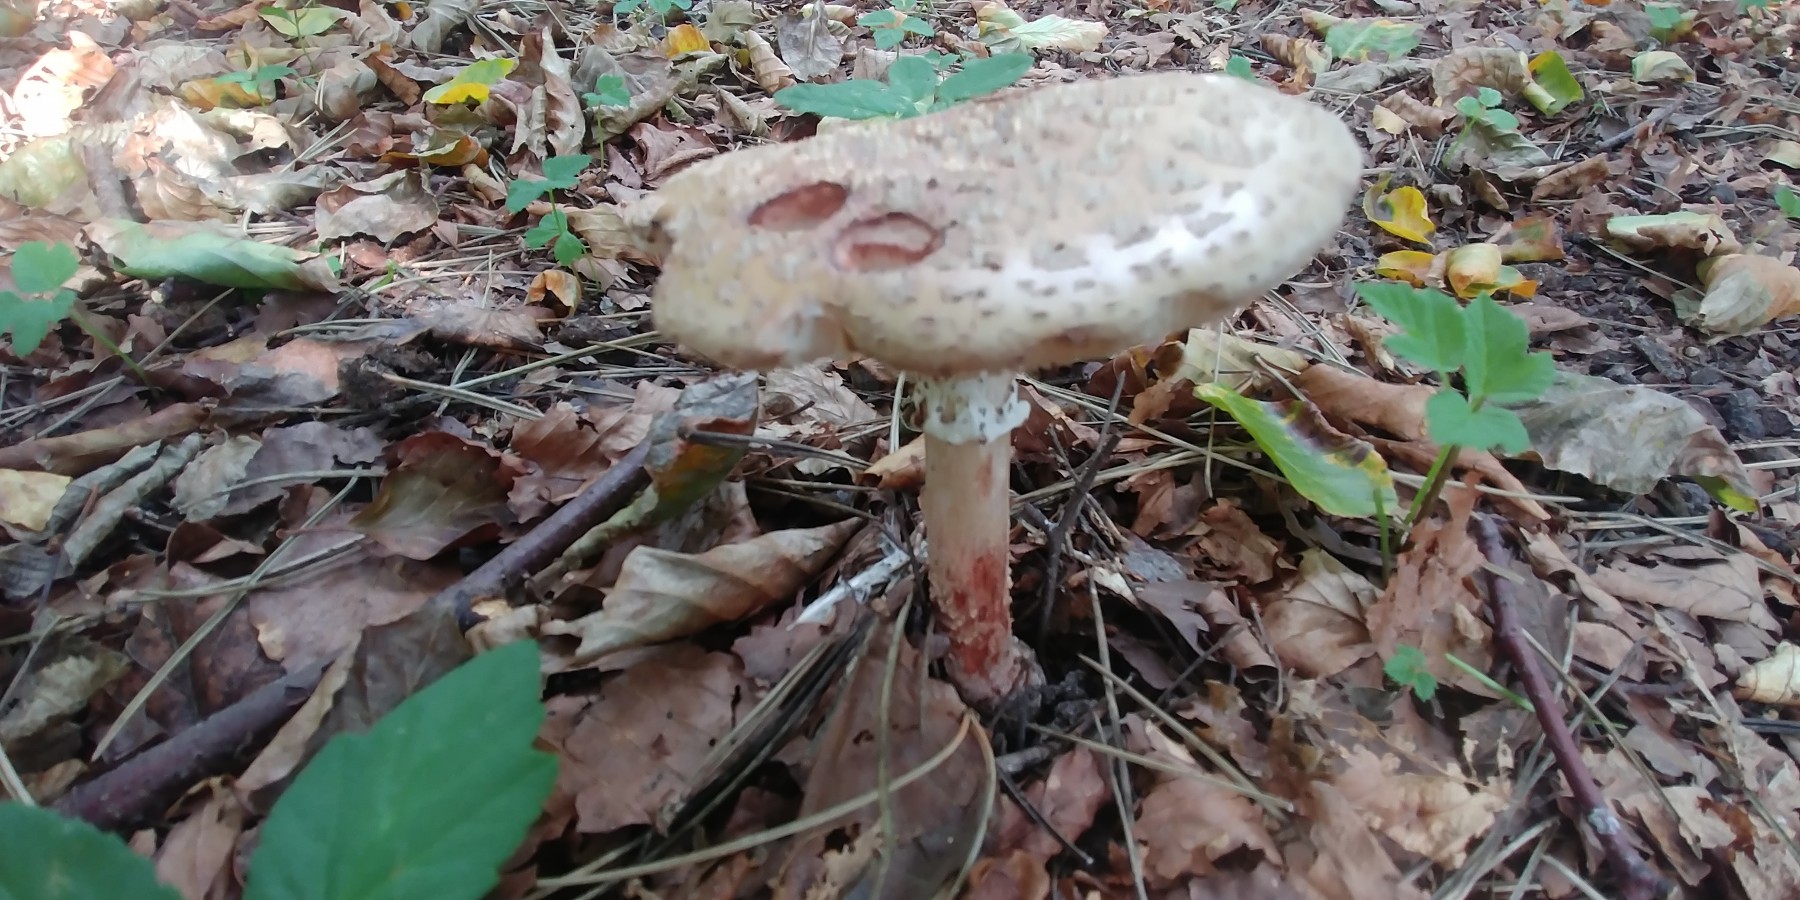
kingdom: Fungi
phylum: Basidiomycota
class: Agaricomycetes
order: Agaricales
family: Amanitaceae
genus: Amanita
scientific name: Amanita rubescens
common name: rødmende fluesvamp
